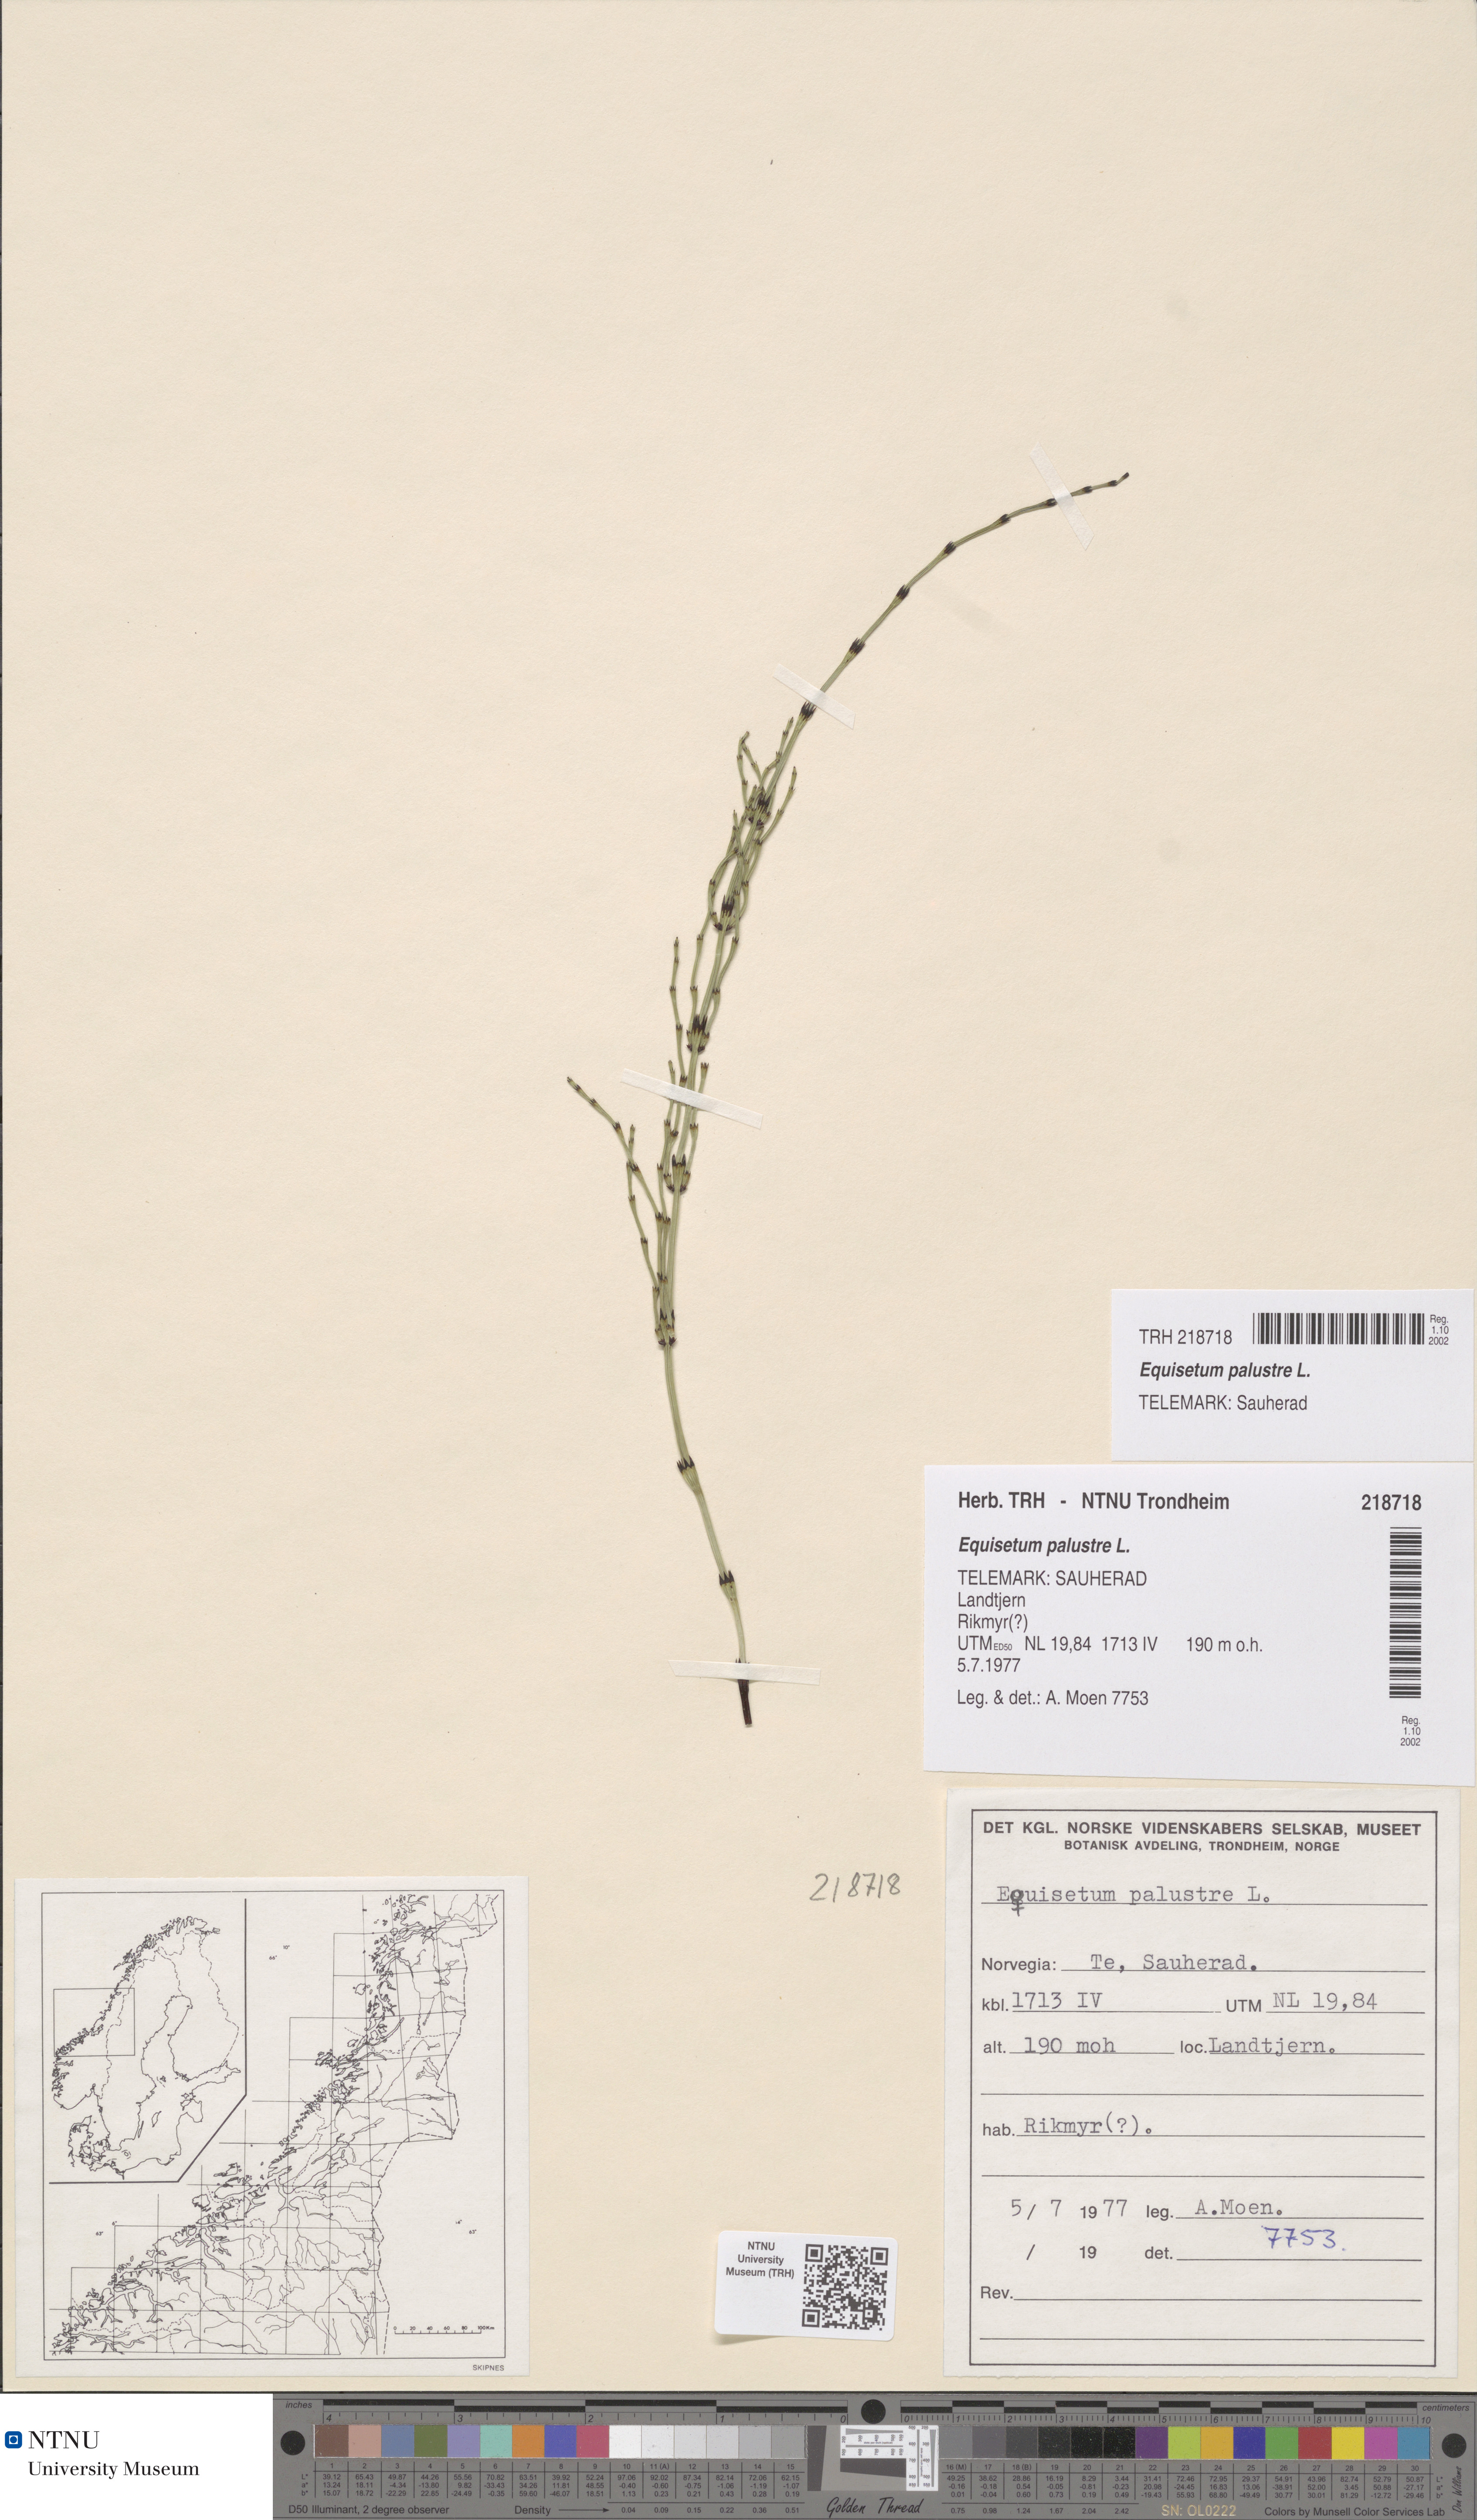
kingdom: Plantae
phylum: Tracheophyta
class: Polypodiopsida
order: Equisetales
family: Equisetaceae
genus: Equisetum
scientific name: Equisetum palustre
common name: Marsh horsetail
